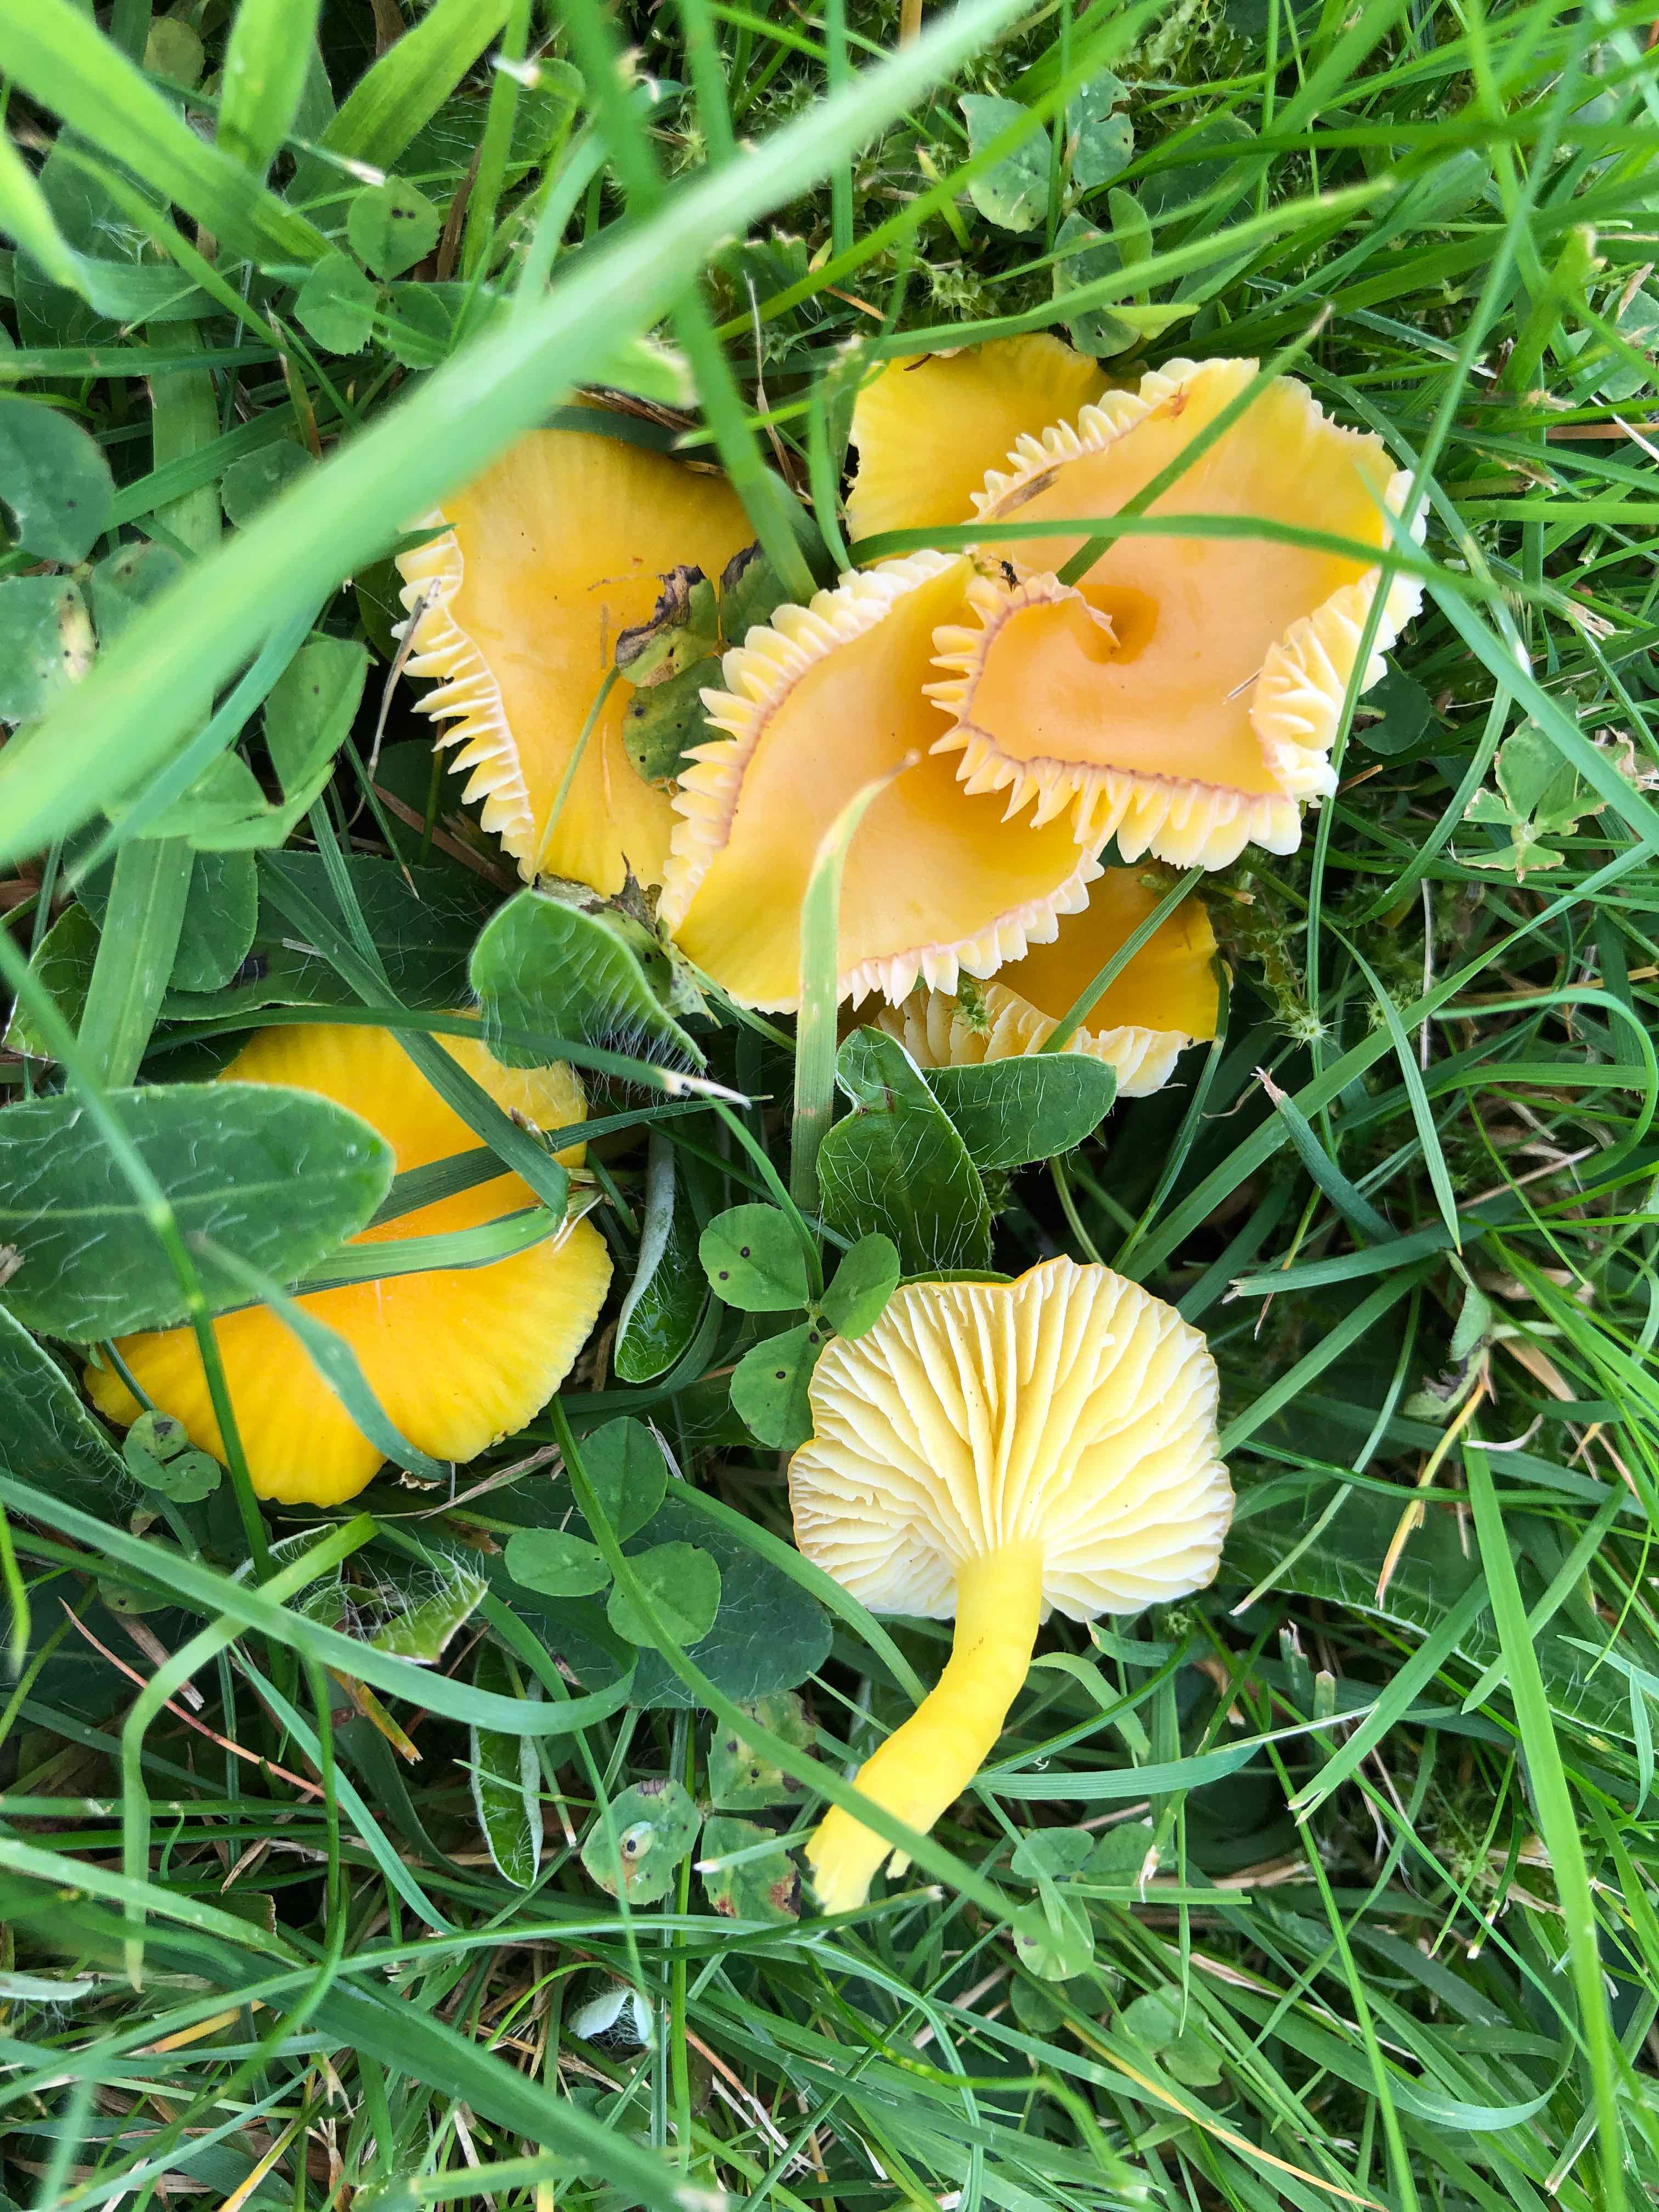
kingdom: Fungi
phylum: Basidiomycota
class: Agaricomycetes
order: Agaricales
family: Hygrophoraceae
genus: Hygrocybe
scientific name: Hygrocybe ceracea
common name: voksgul vokshat
